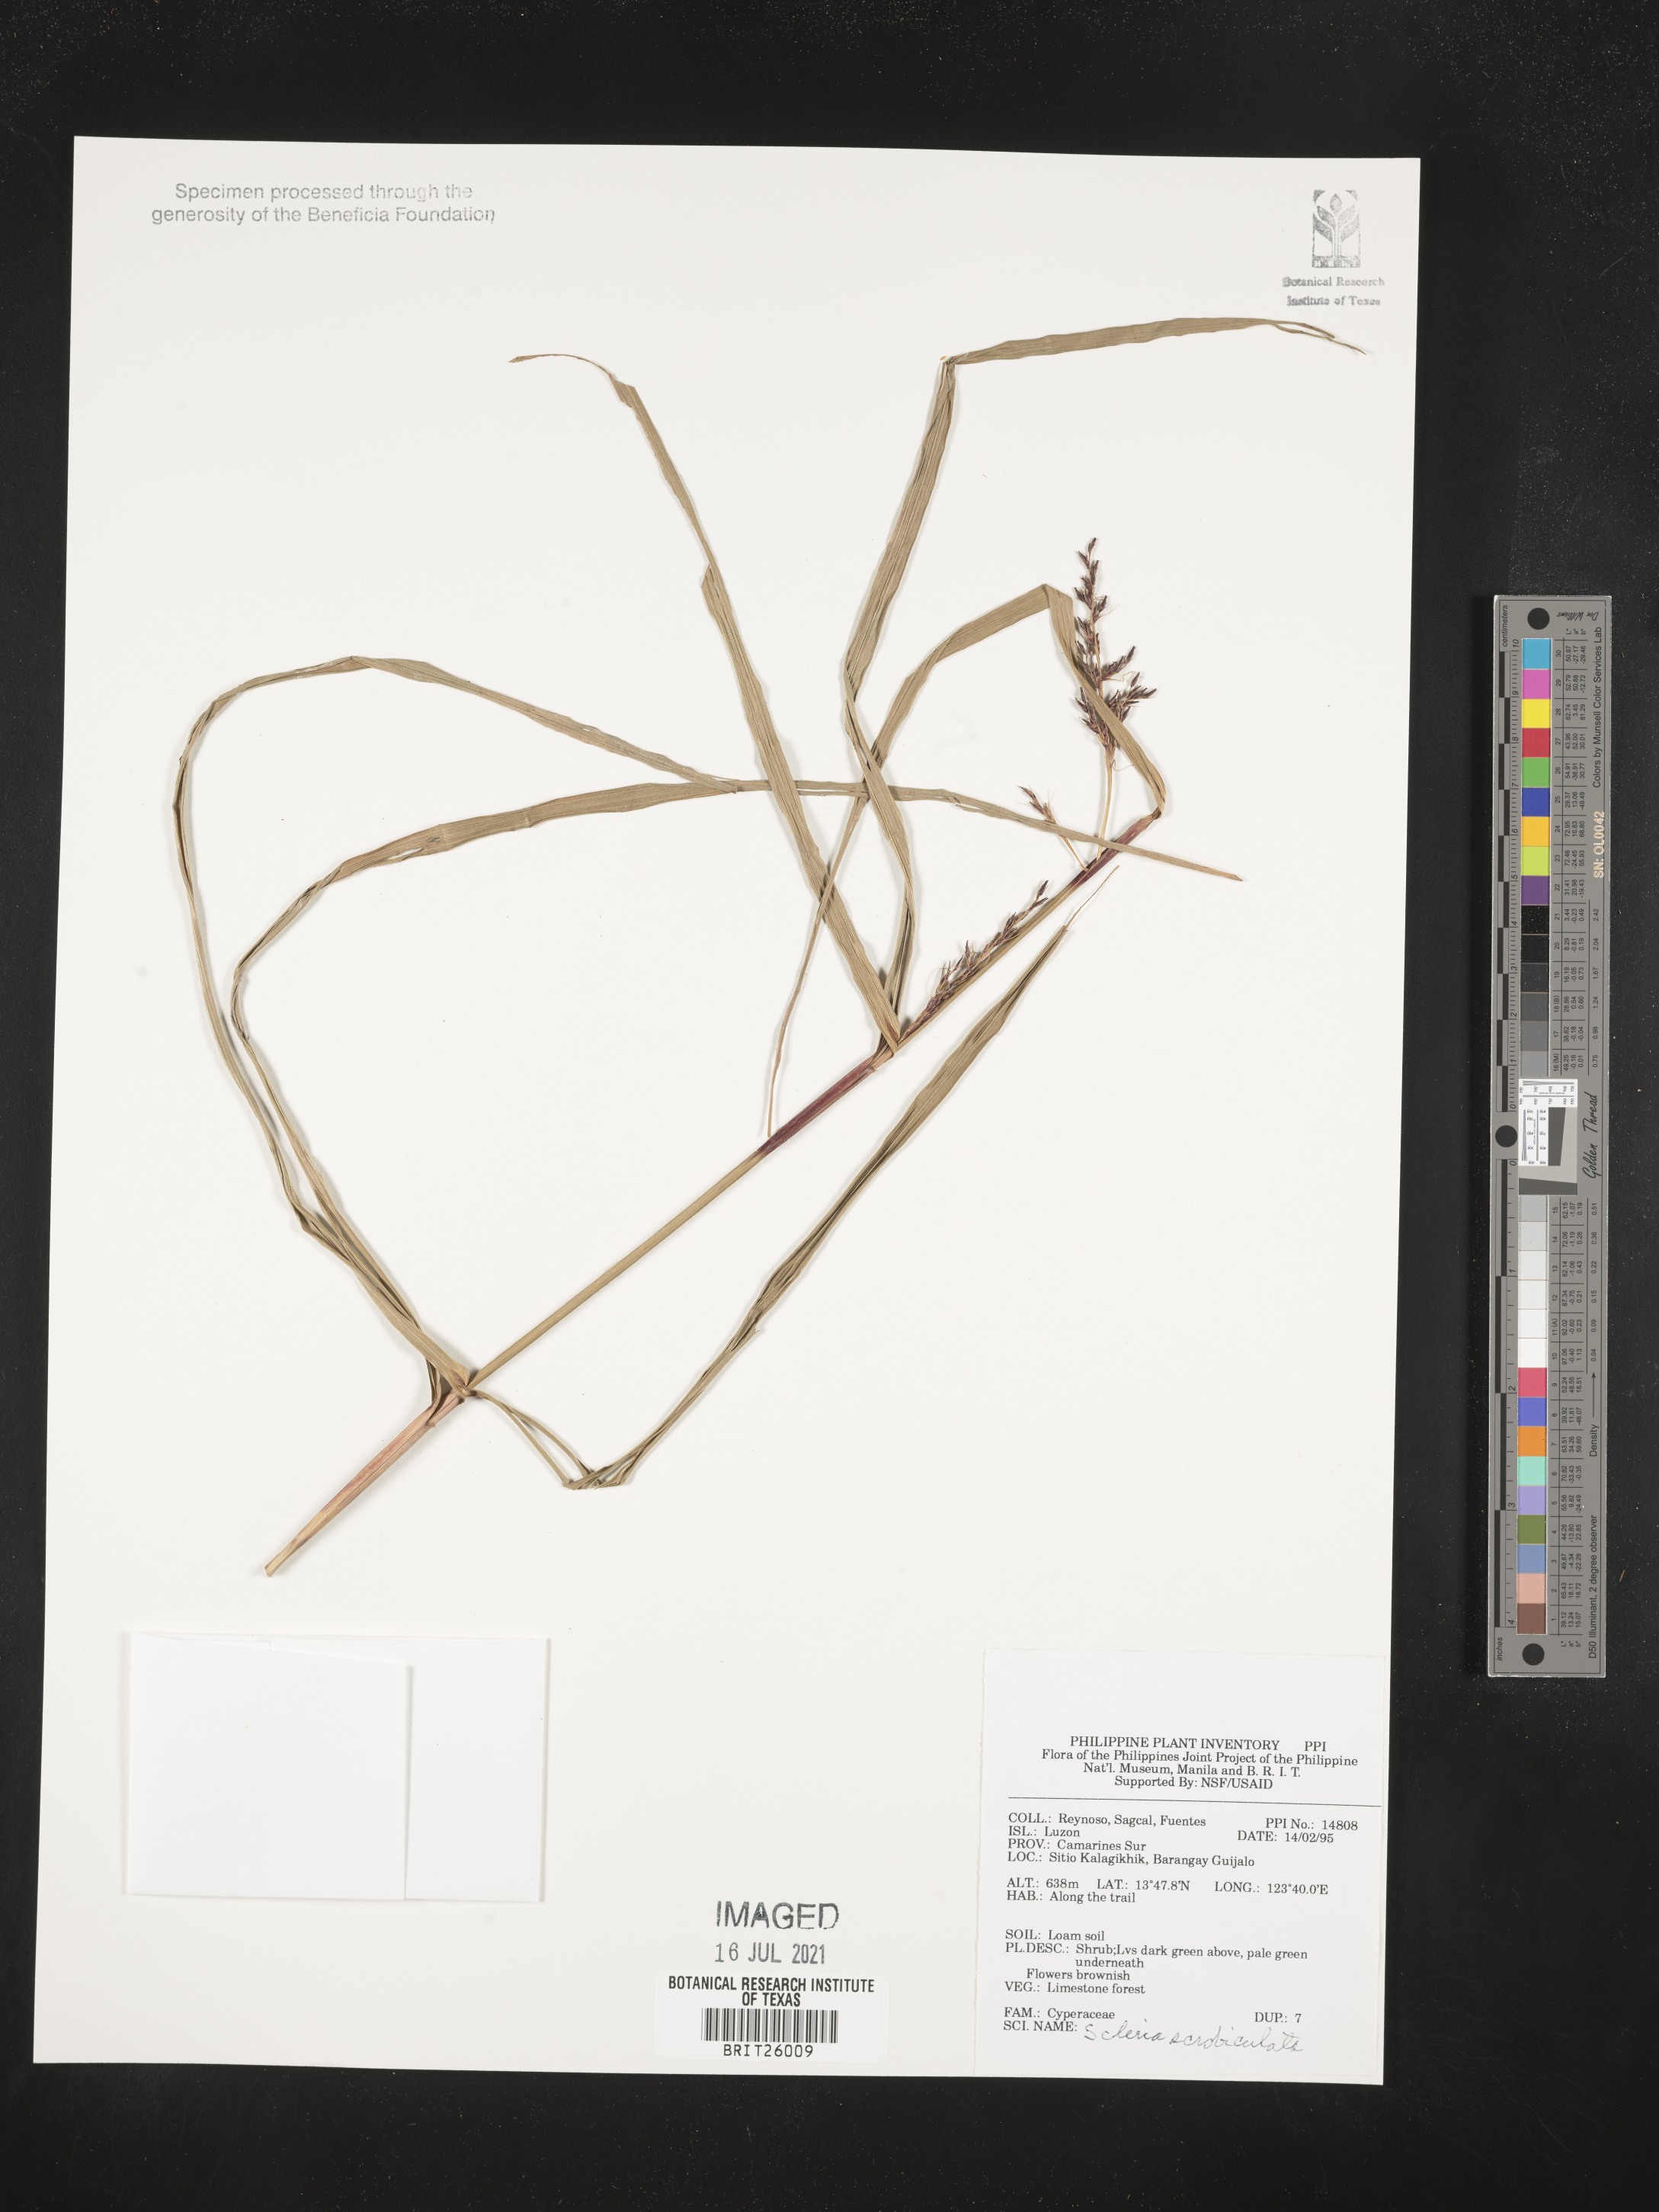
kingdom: Plantae
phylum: Tracheophyta
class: Liliopsida
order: Poales
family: Cyperaceae
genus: Scleria
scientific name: Scleria scrobiculata
